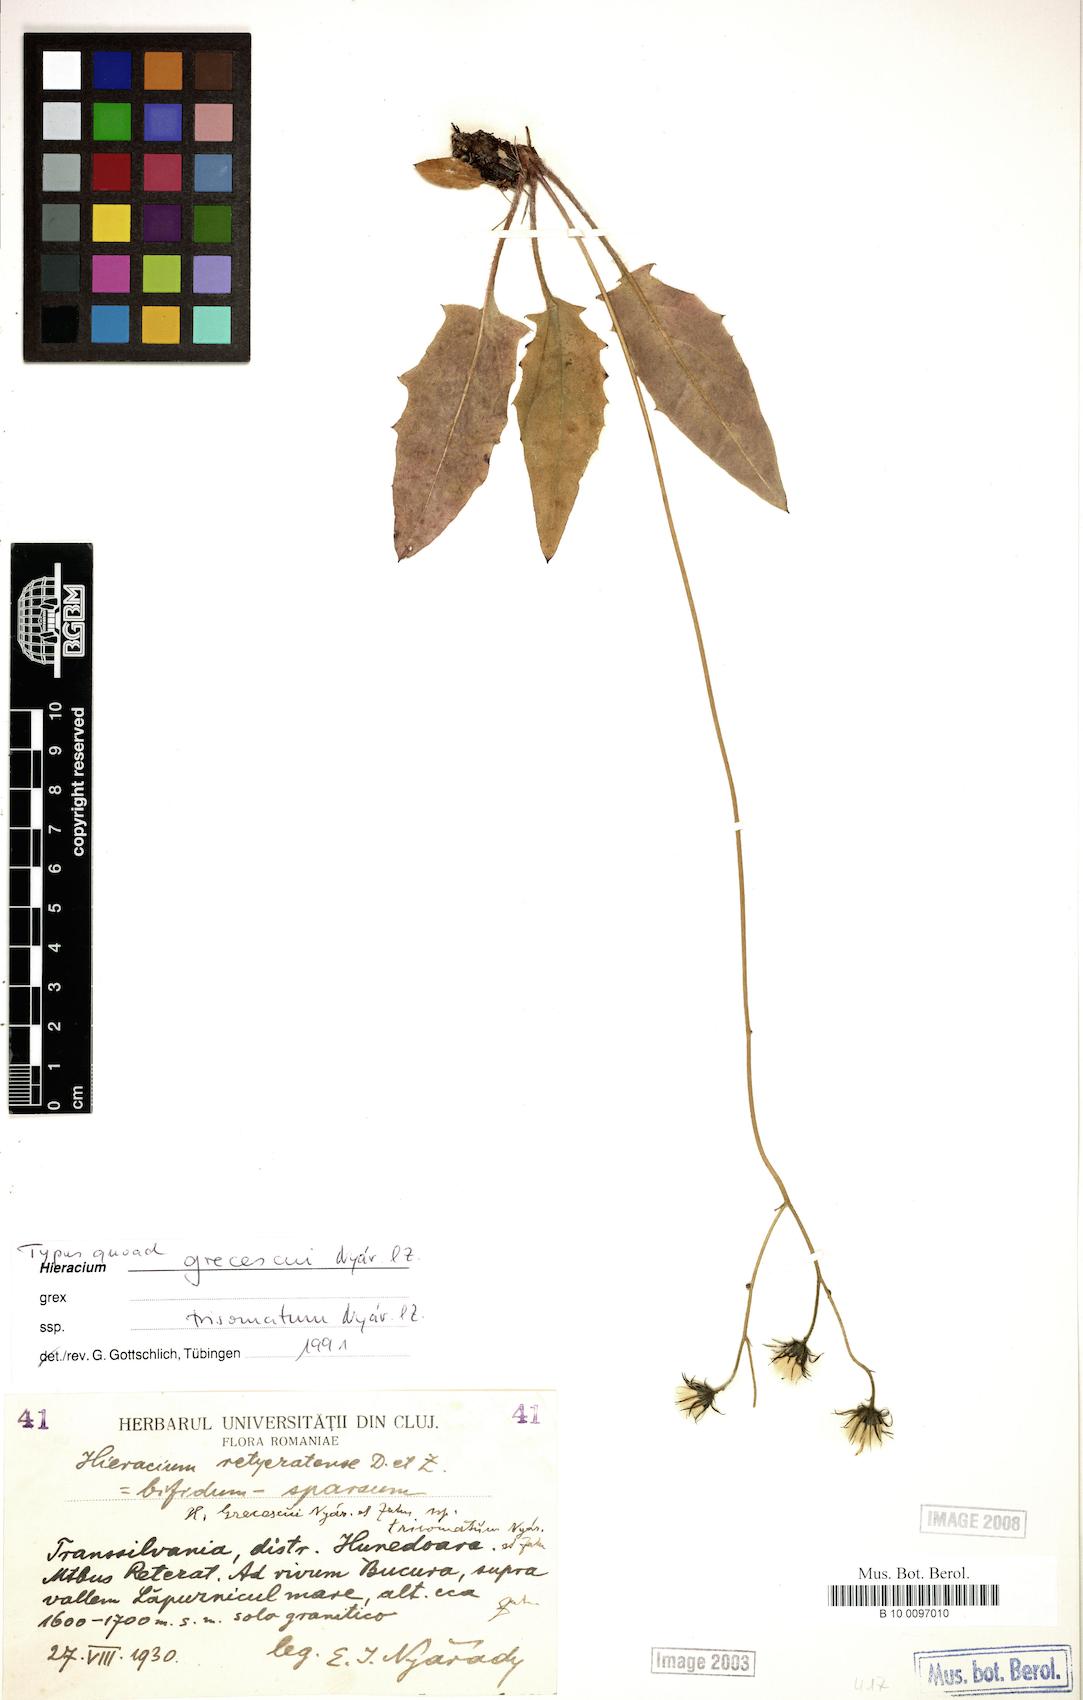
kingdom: Plantae
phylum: Tracheophyta
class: Magnoliopsida
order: Asterales
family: Asteraceae
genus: Hieracium
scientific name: Hieracium grecescui
